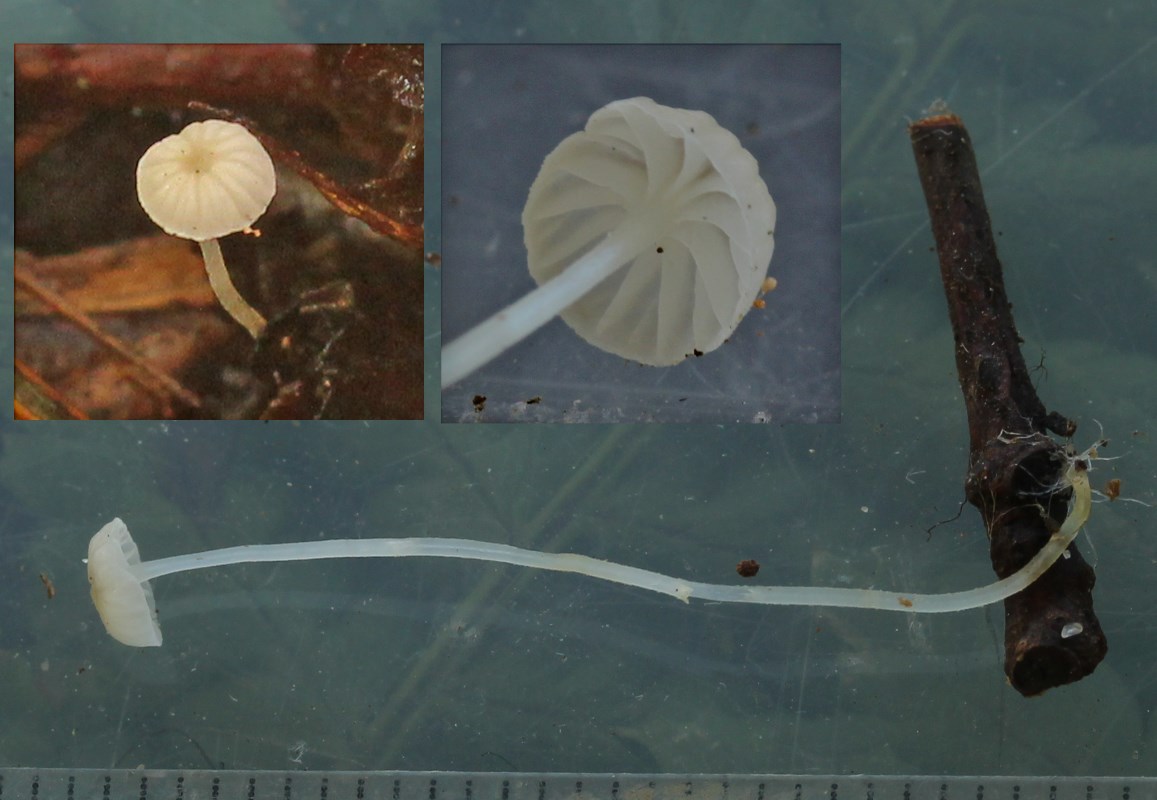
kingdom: Fungi
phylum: Basidiomycota
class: Agaricomycetes
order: Agaricales
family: Porotheleaceae
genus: Phloeomana
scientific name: Phloeomana speirea
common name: kvist-huesvamp
